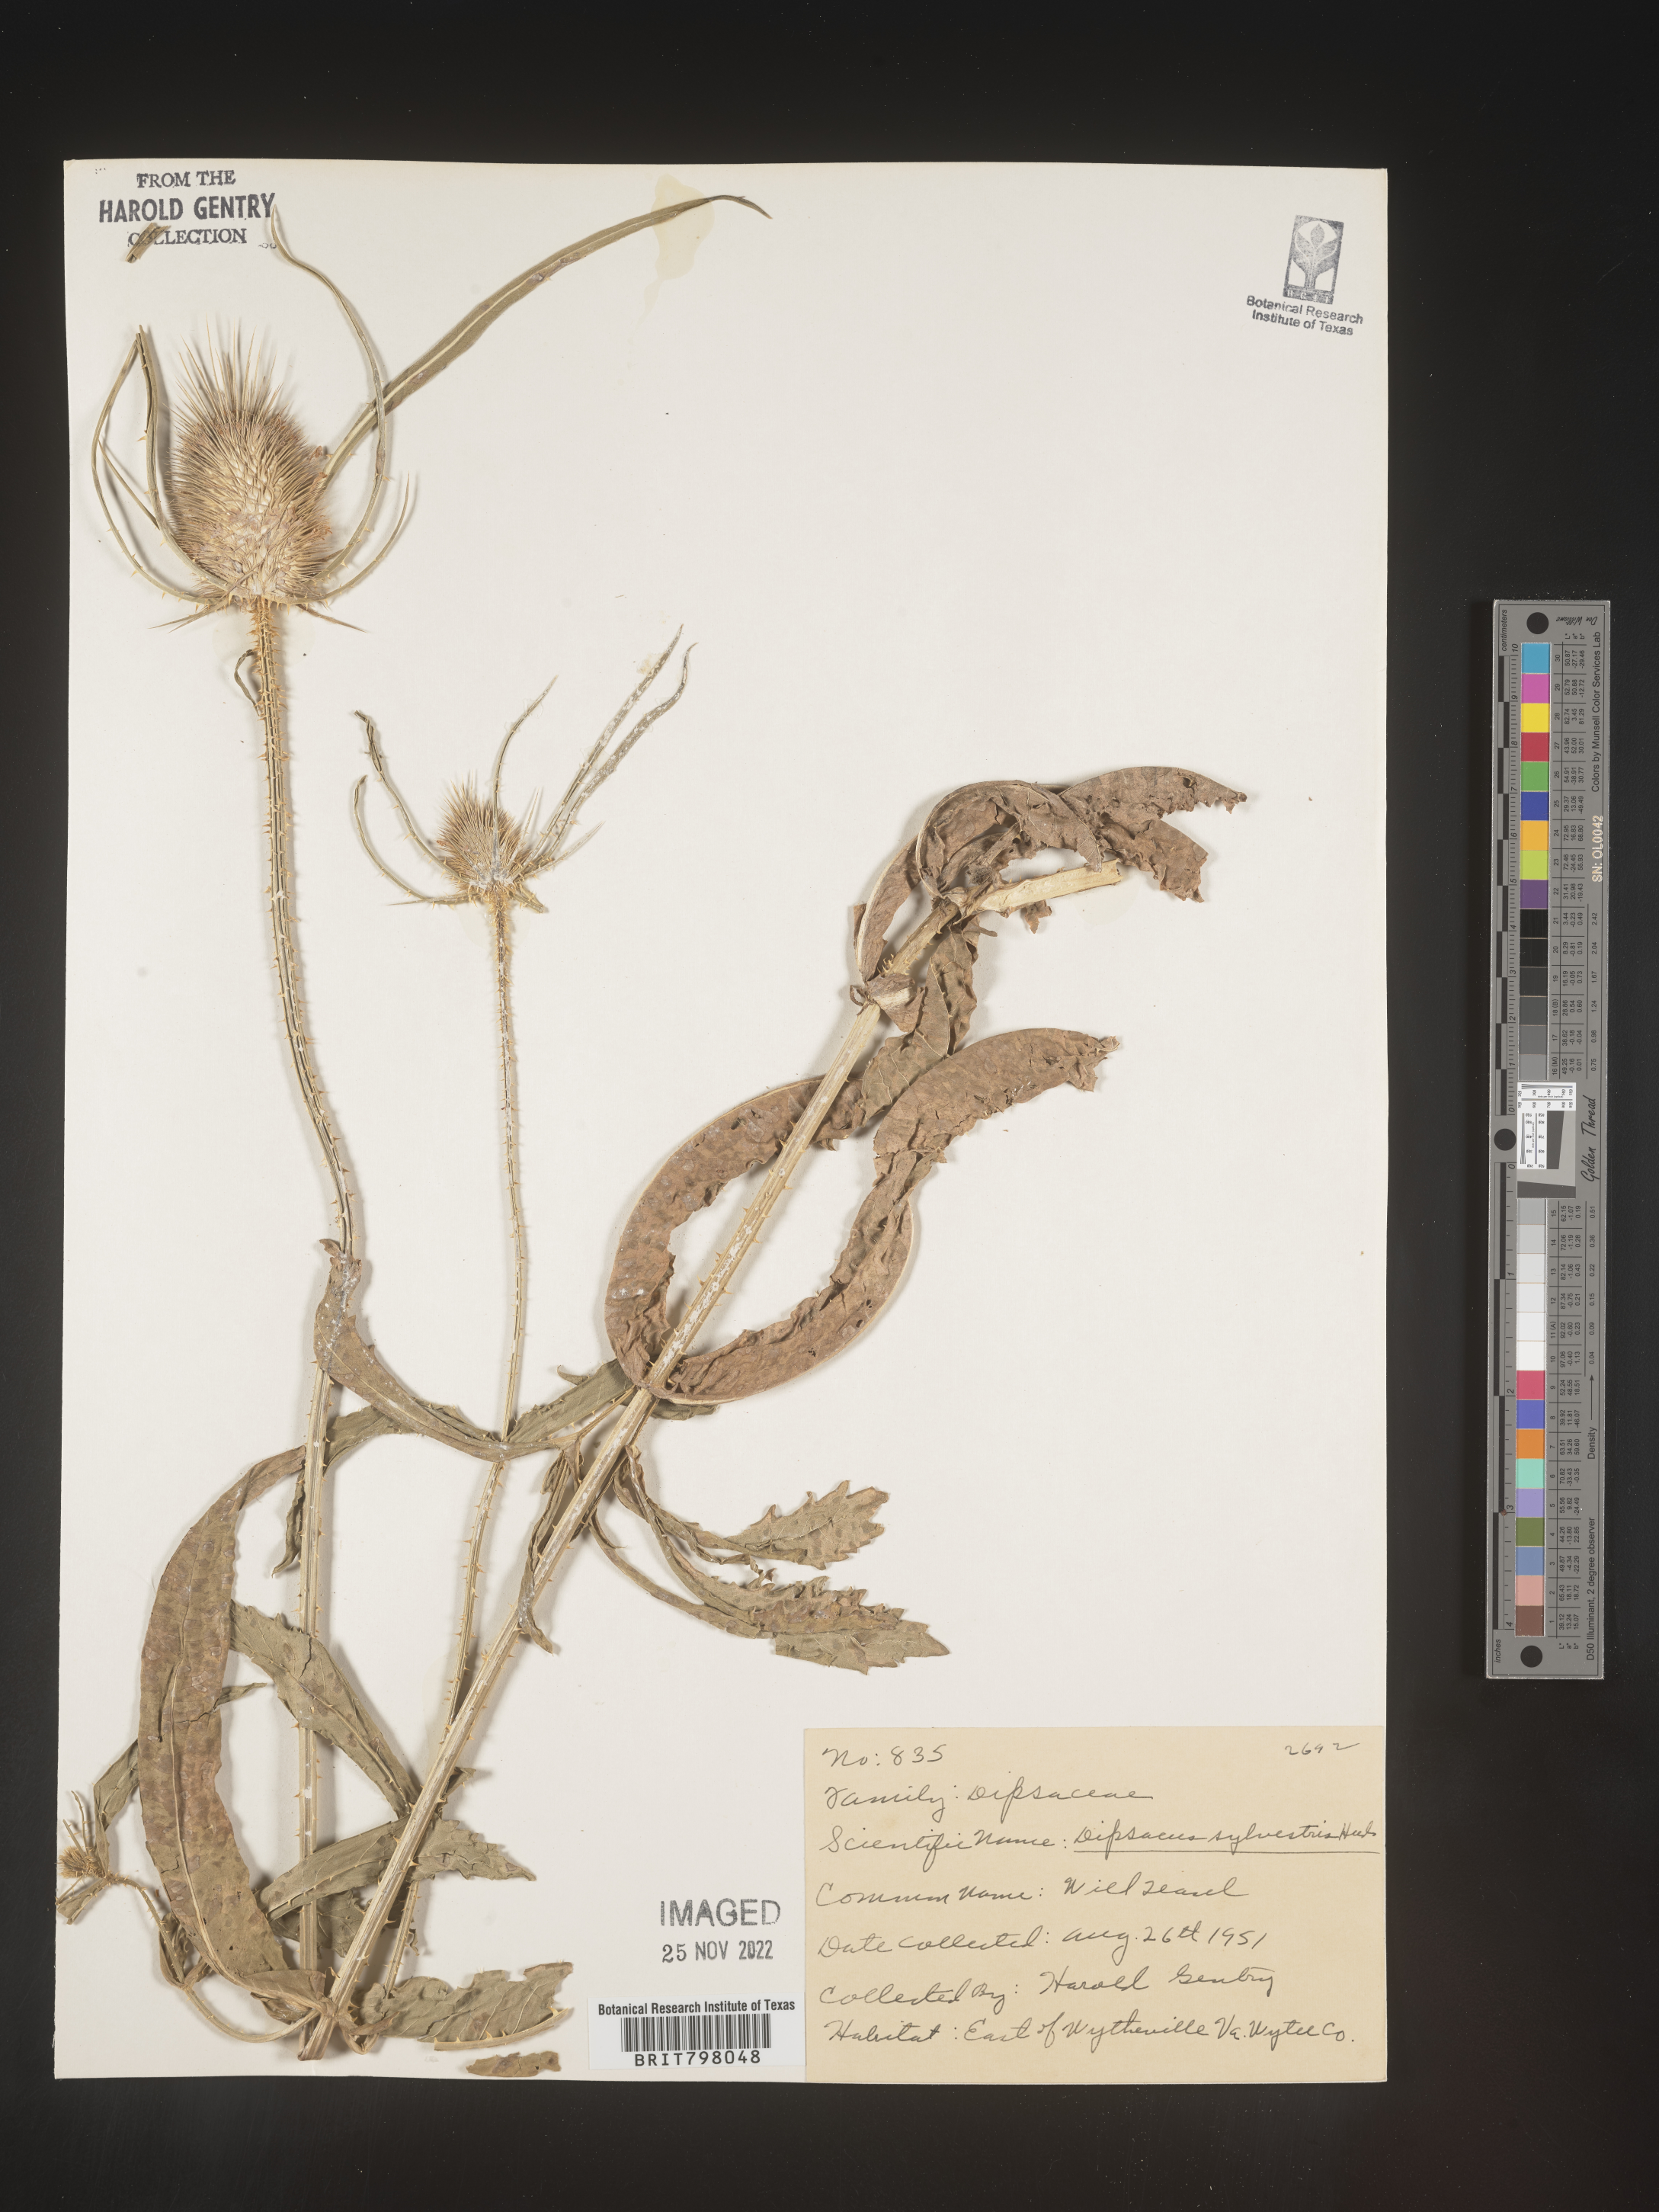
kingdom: Plantae
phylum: Tracheophyta
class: Magnoliopsida
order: Dipsacales
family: Caprifoliaceae
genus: Dipsacus
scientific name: Dipsacus fullonum
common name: Teasel
